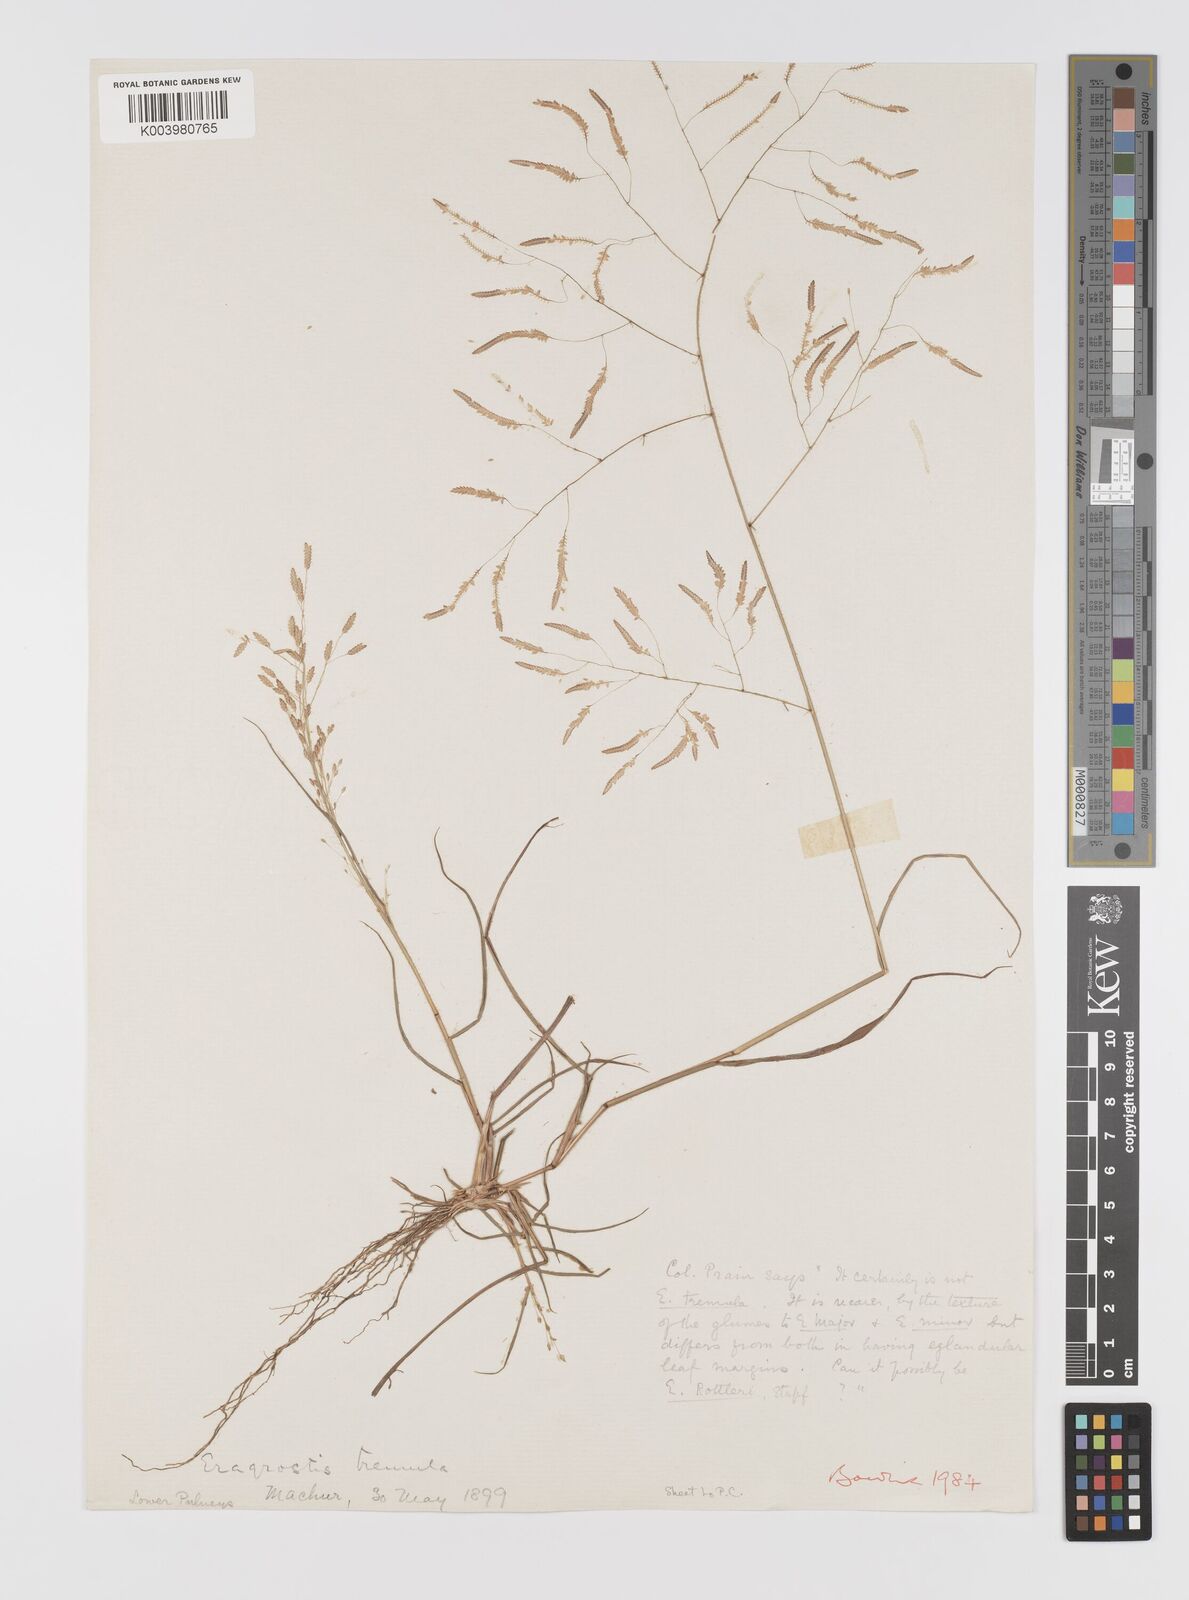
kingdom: Plantae
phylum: Tracheophyta
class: Liliopsida
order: Poales
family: Poaceae
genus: Eragrostis
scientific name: Eragrostis tremula
